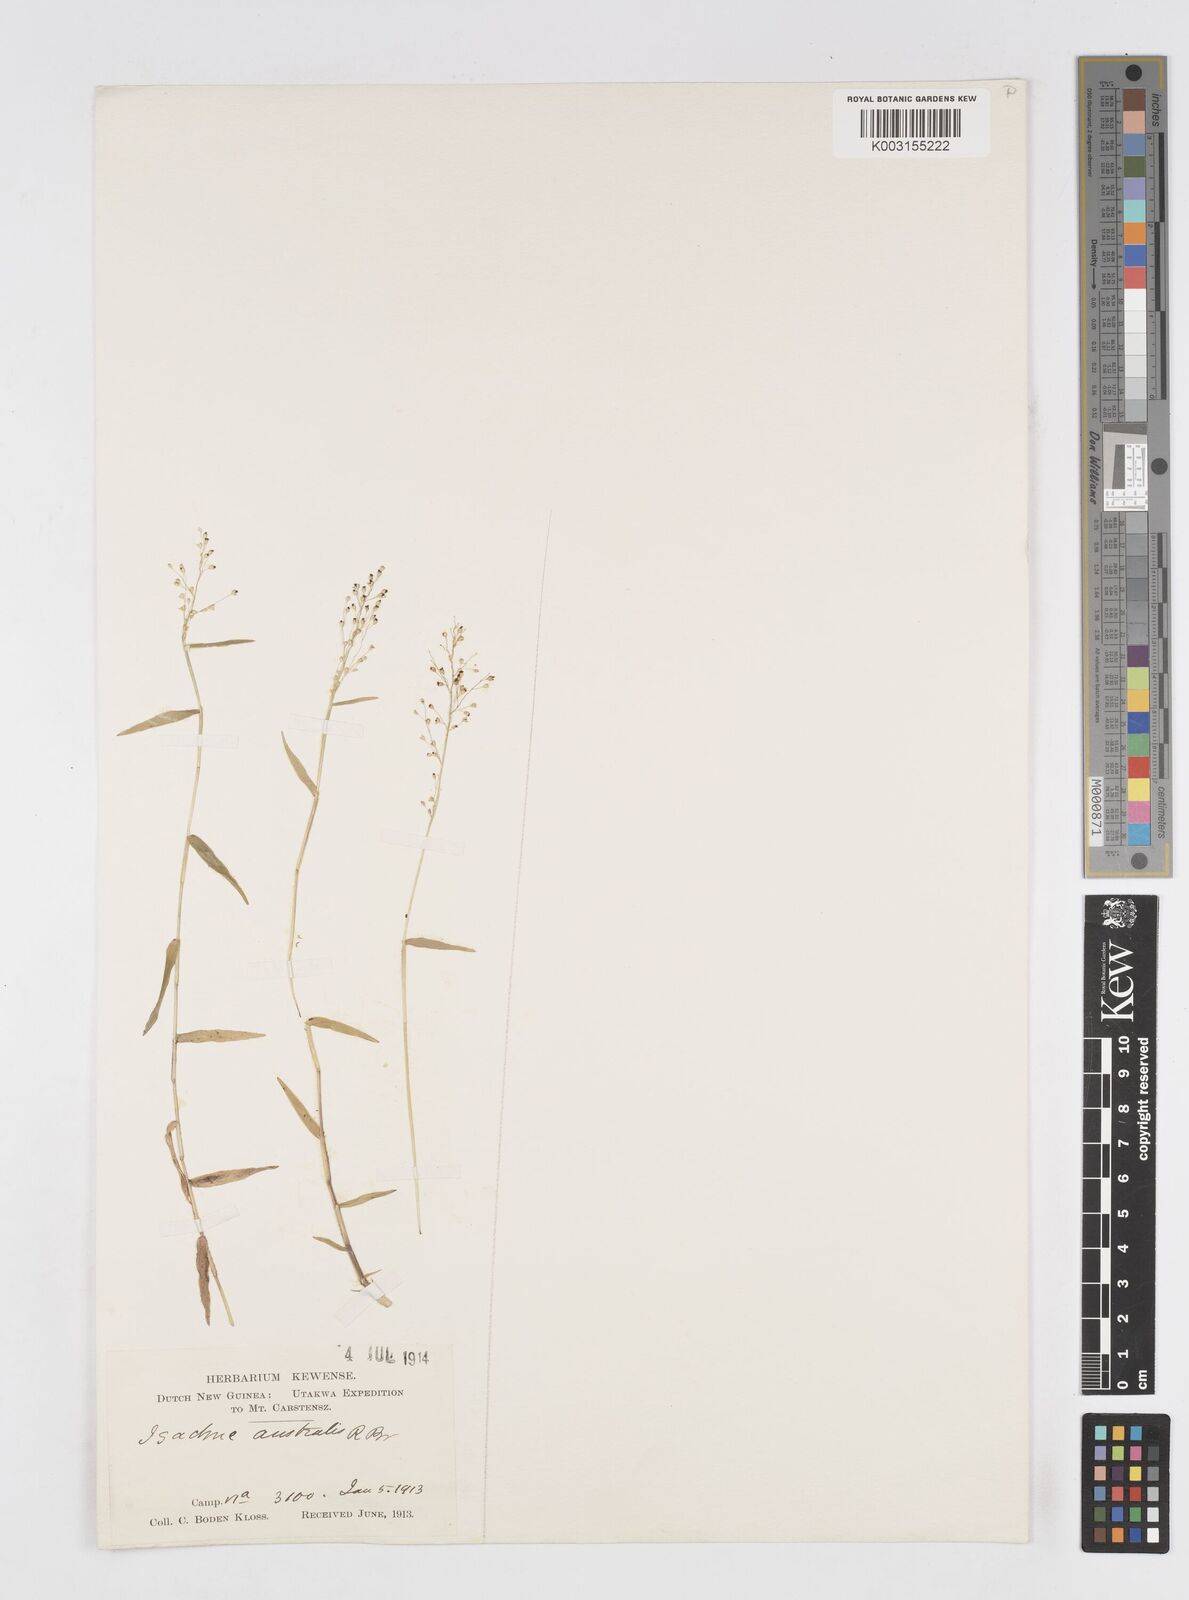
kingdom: Plantae
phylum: Tracheophyta
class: Liliopsida
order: Poales
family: Poaceae
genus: Isachne
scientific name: Isachne globosa
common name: Swamp millet
